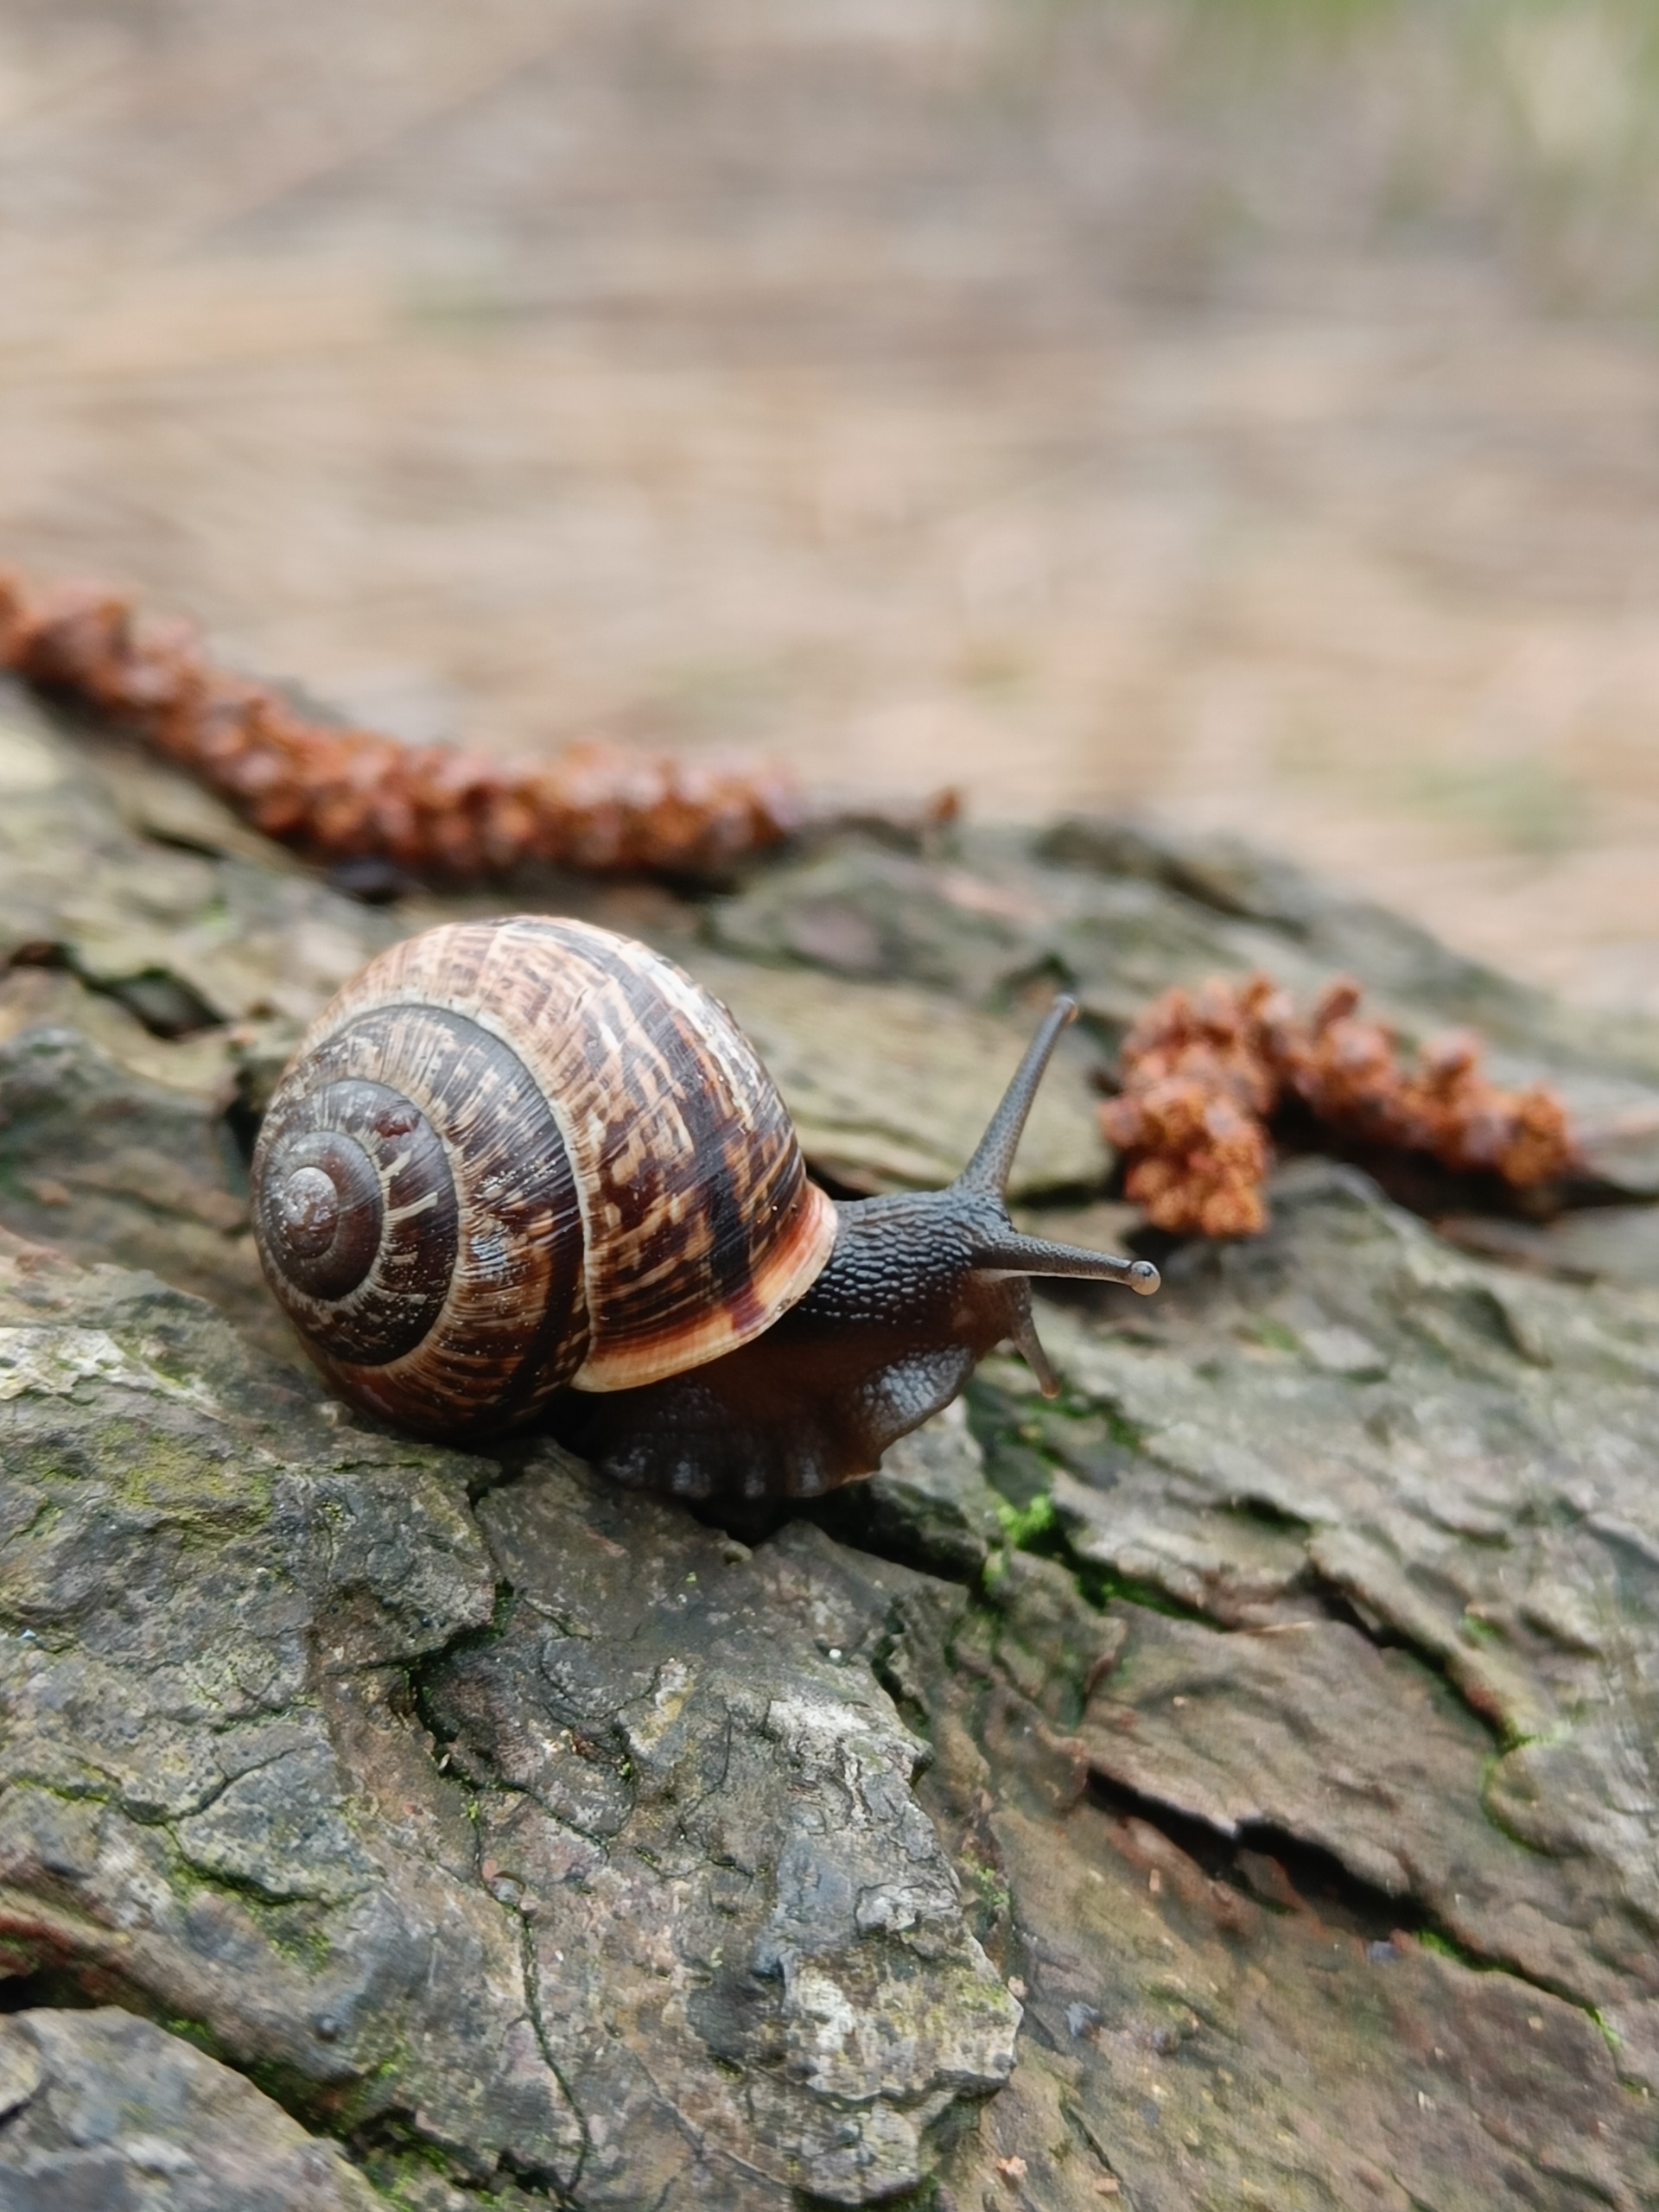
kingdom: Animalia
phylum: Mollusca
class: Gastropoda
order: Stylommatophora
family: Helicidae
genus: Arianta
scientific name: Arianta arbustorum
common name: Kratsnegl
